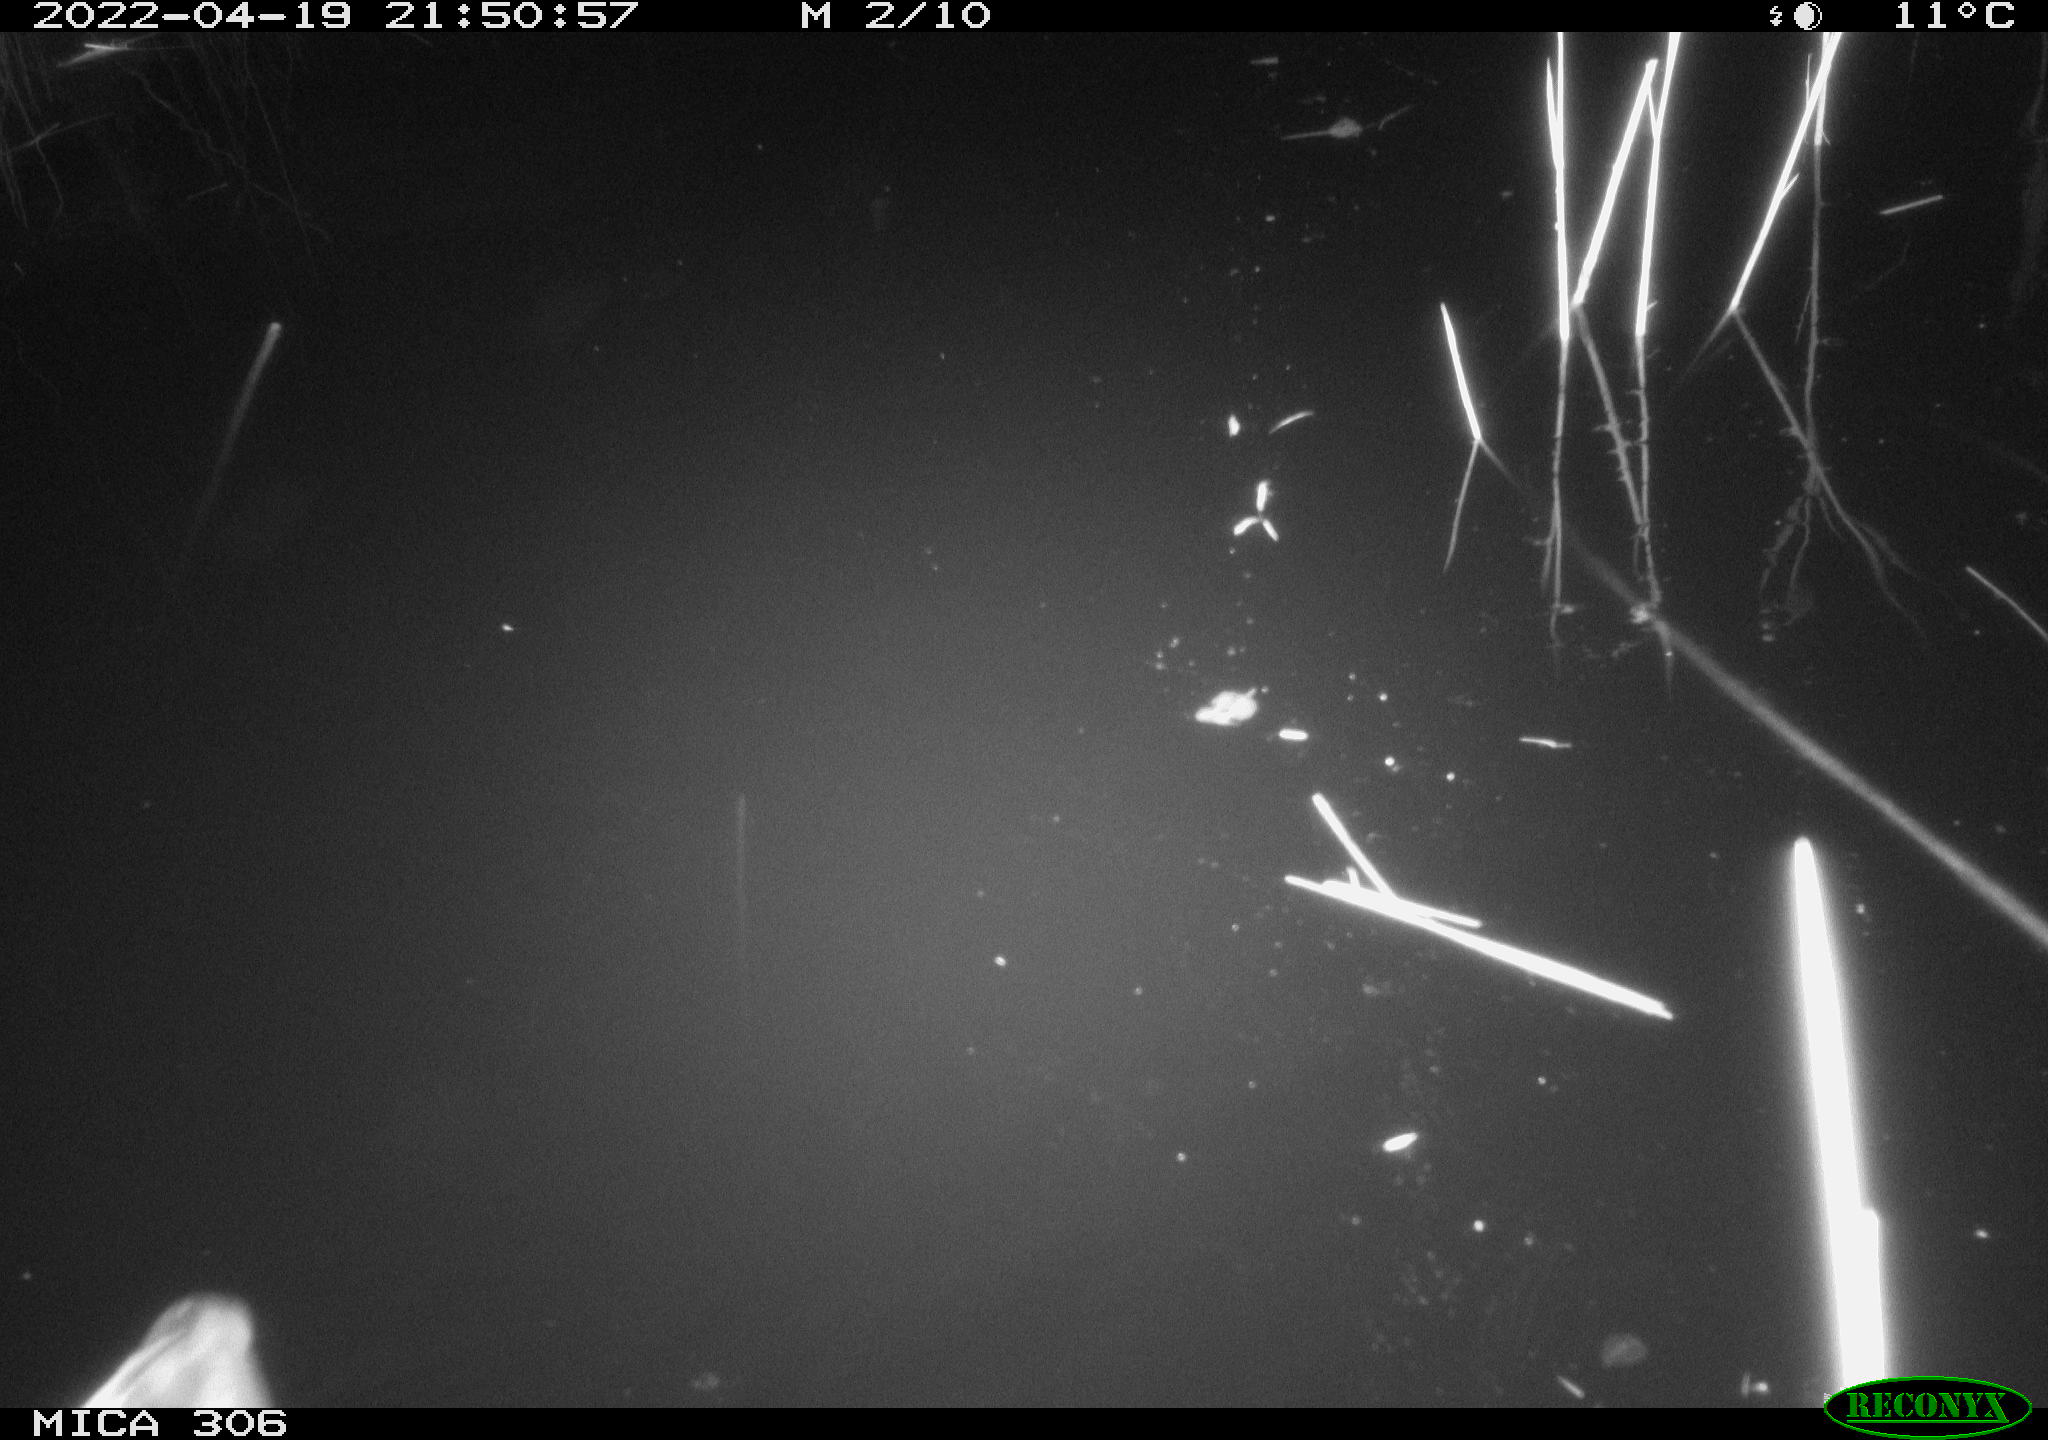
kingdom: Animalia
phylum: Chordata
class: Aves
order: Gruiformes
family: Rallidae
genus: Gallinula
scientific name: Gallinula chloropus
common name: Common moorhen
